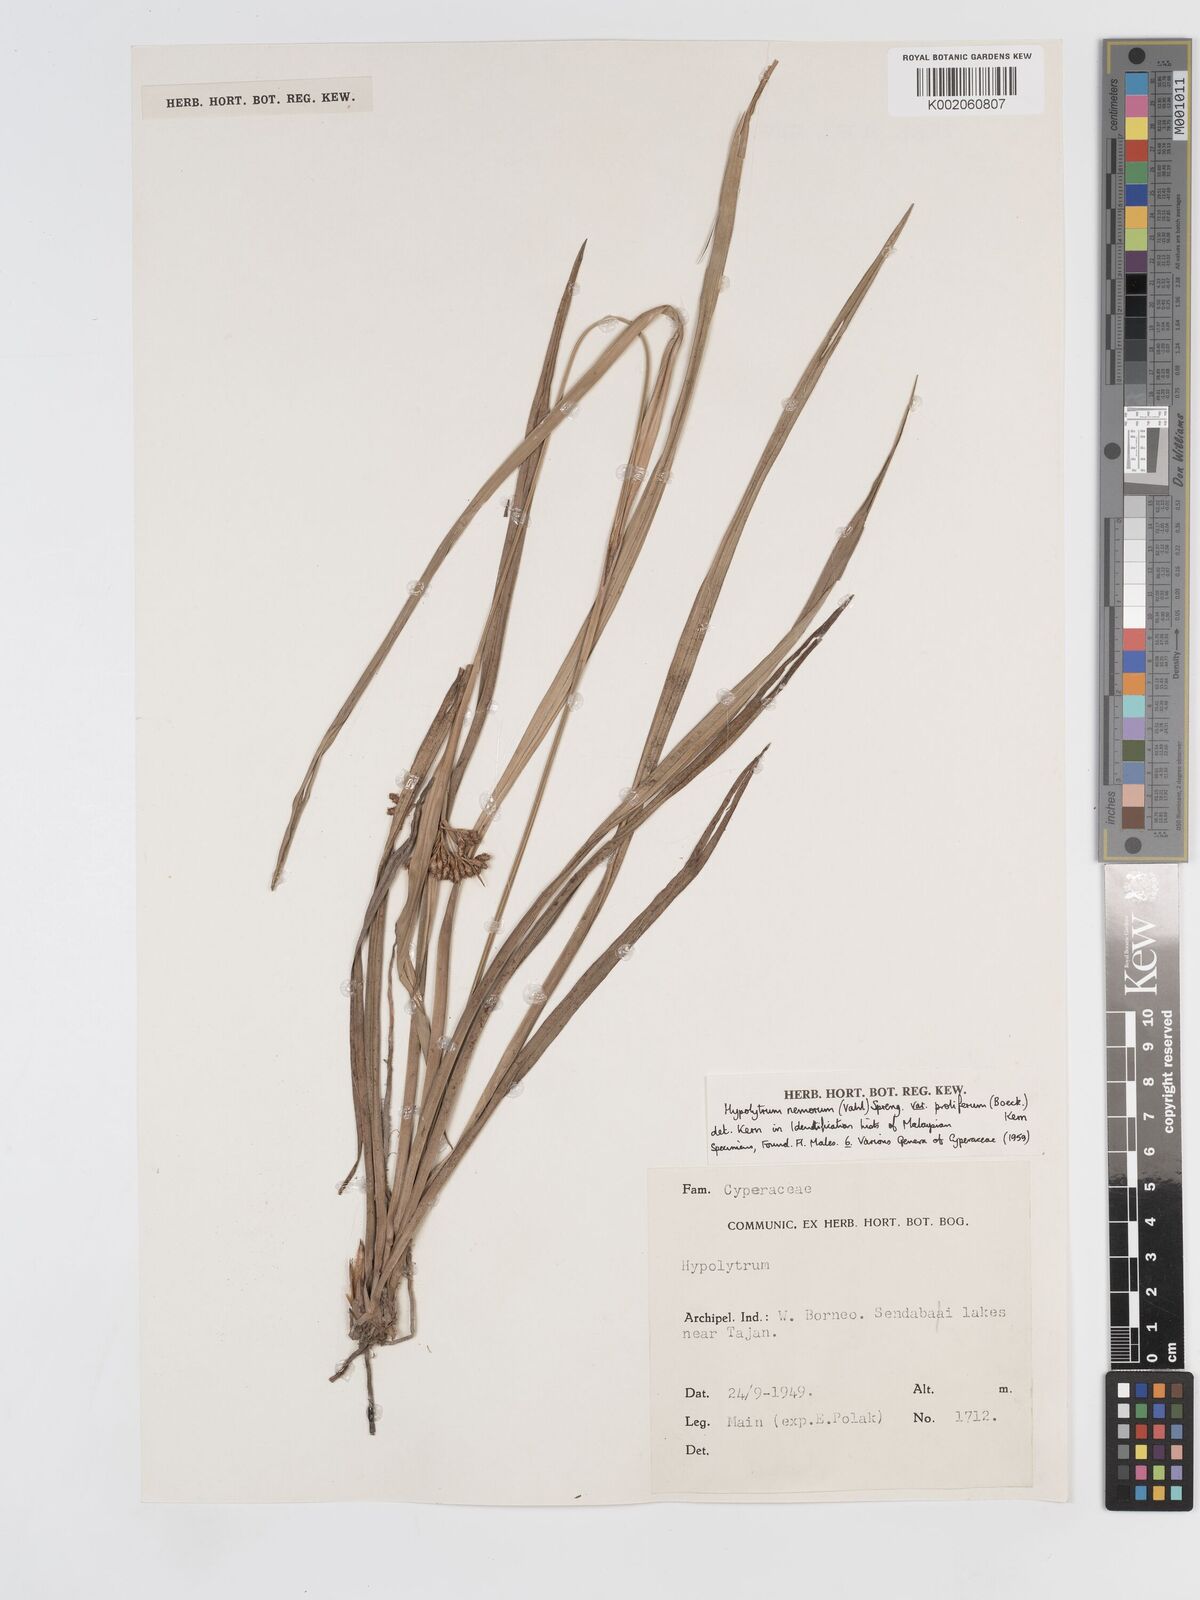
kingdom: Plantae
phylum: Tracheophyta
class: Liliopsida
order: Poales
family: Cyperaceae
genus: Hypolytrum
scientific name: Hypolytrum nemorum
